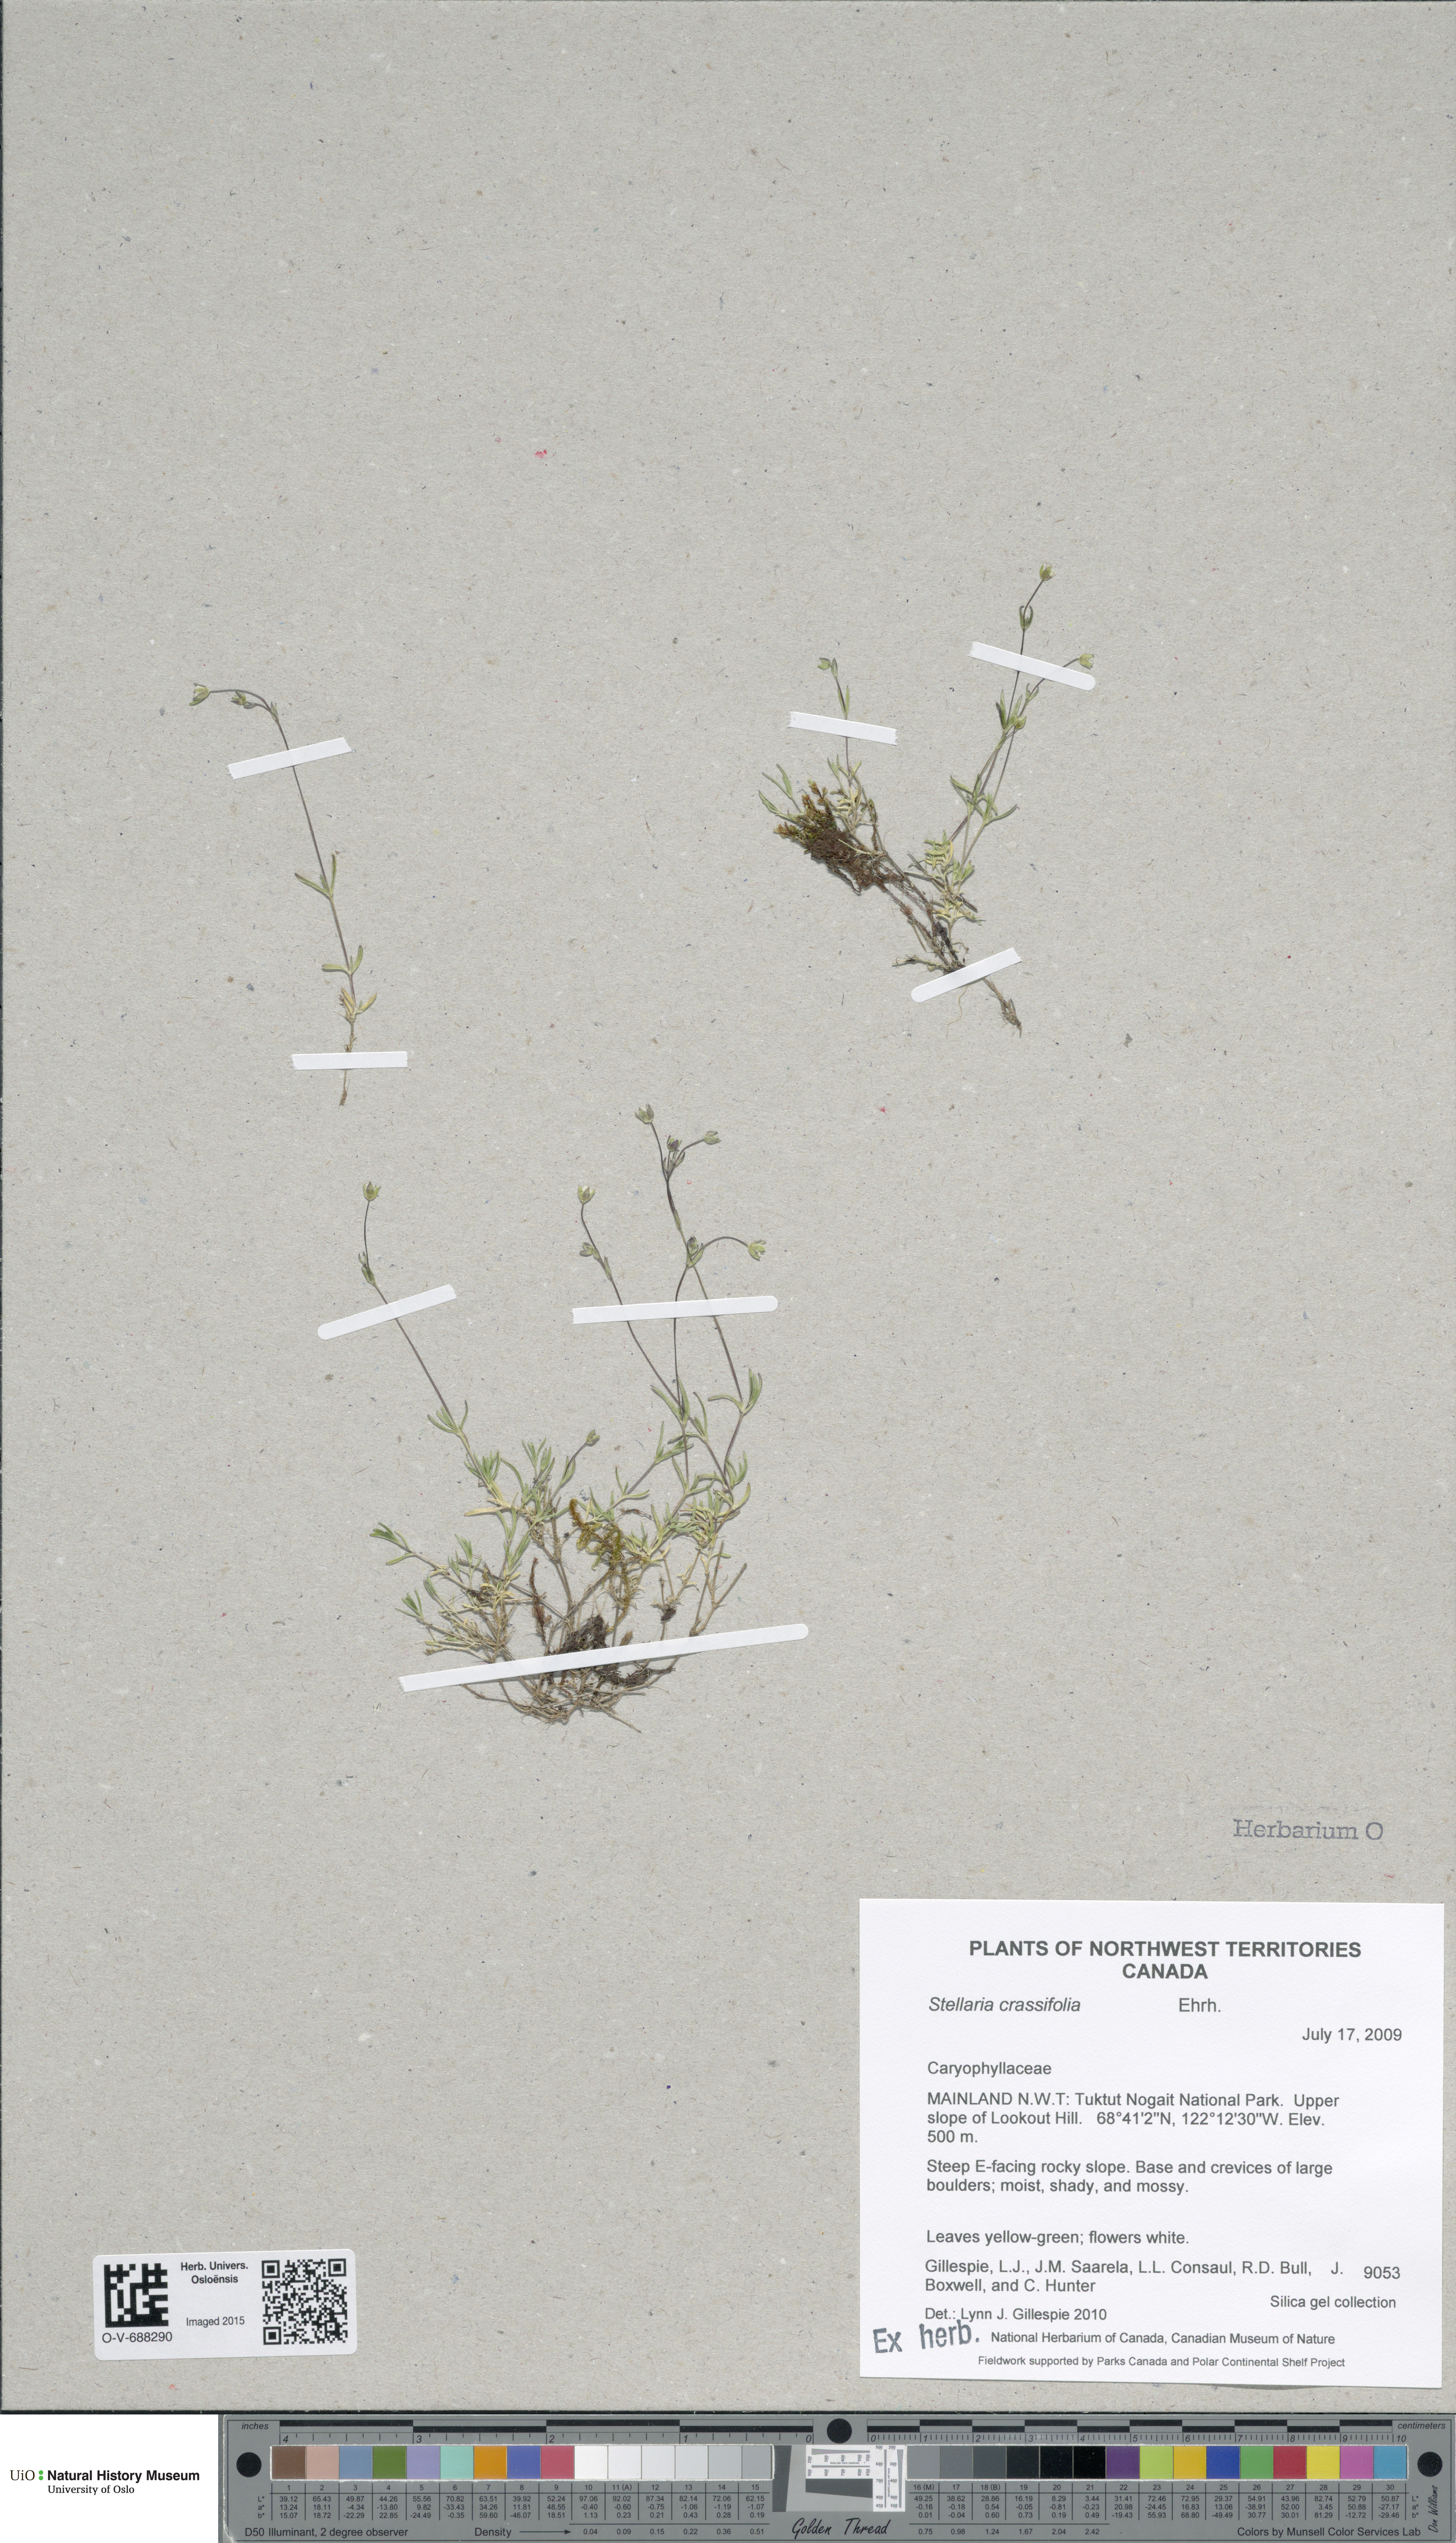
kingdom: Plantae
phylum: Tracheophyta
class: Magnoliopsida
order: Caryophyllales
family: Caryophyllaceae
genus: Stellaria
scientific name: Stellaria crassifolia
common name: Fleshy starwort
